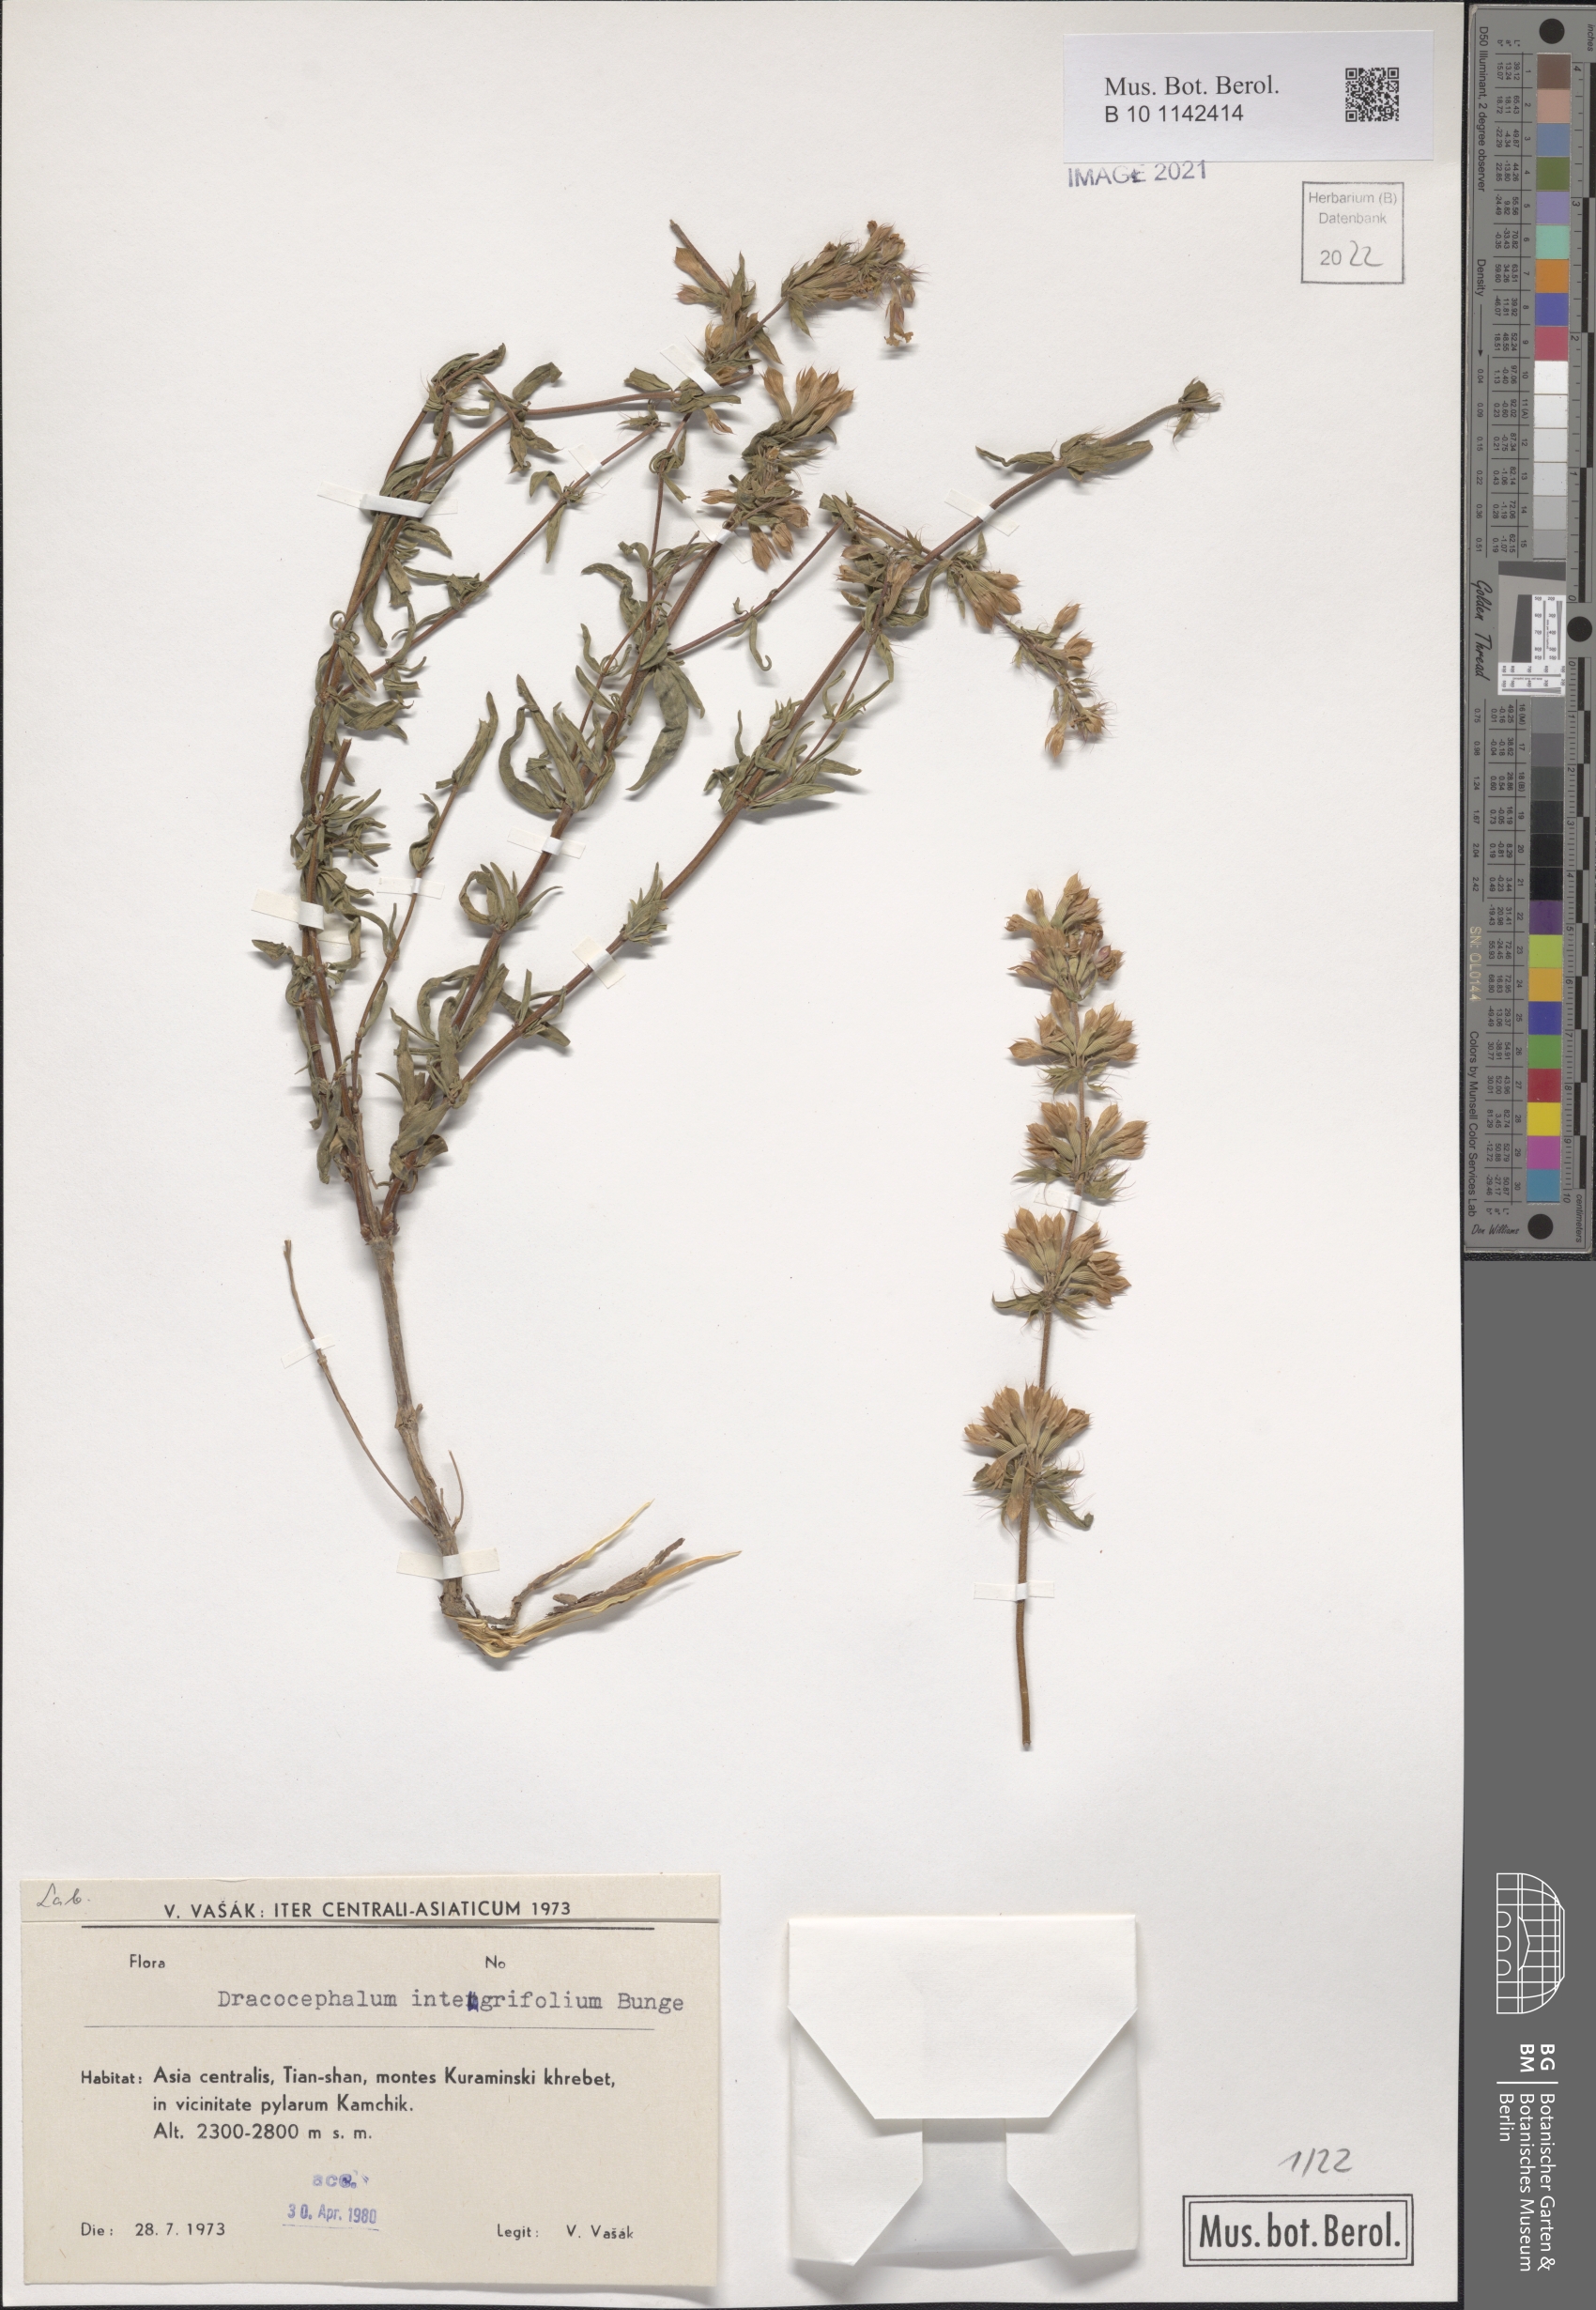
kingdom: Plantae
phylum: Tracheophyta
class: Magnoliopsida
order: Lamiales
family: Lamiaceae
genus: Dracocephalum
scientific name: Dracocephalum integrifolium
